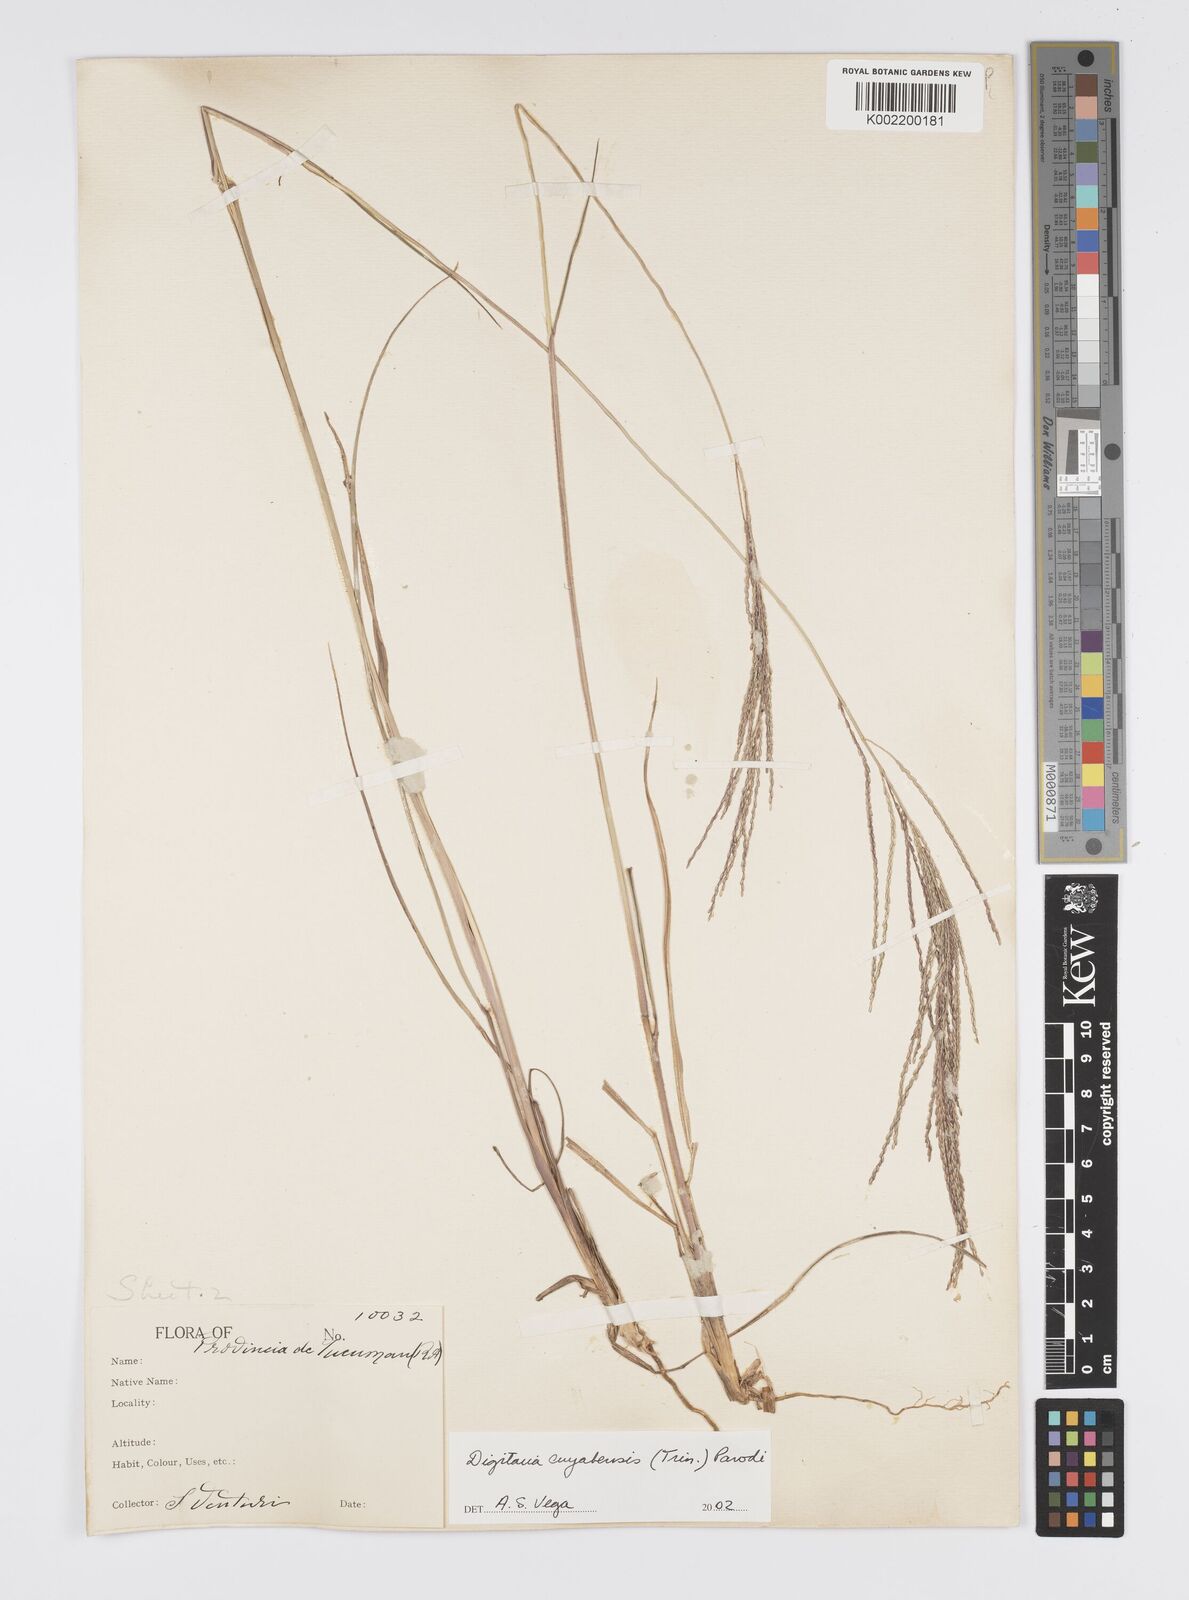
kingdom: Plantae
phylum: Tracheophyta
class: Liliopsida
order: Poales
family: Poaceae
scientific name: Poaceae
